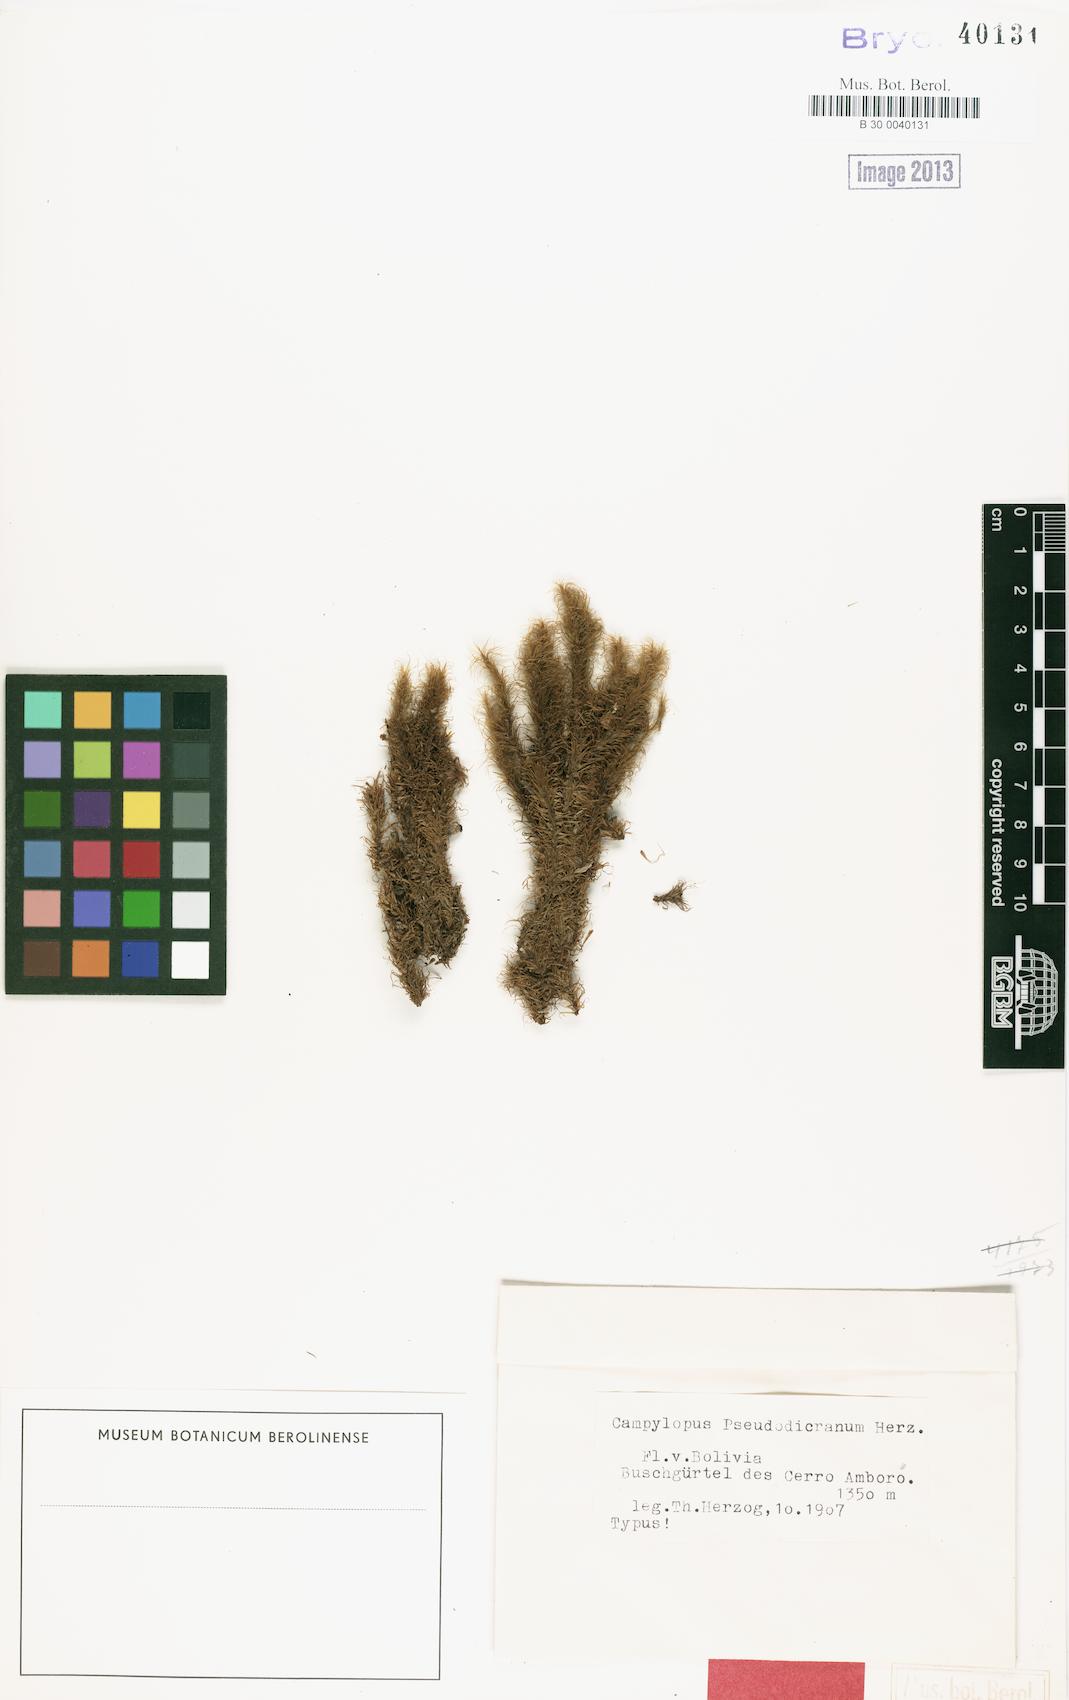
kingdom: Plantae
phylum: Bryophyta
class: Bryopsida
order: Dicranales
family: Leucobryaceae
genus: Campylopus
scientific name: Campylopus lamellinervis
